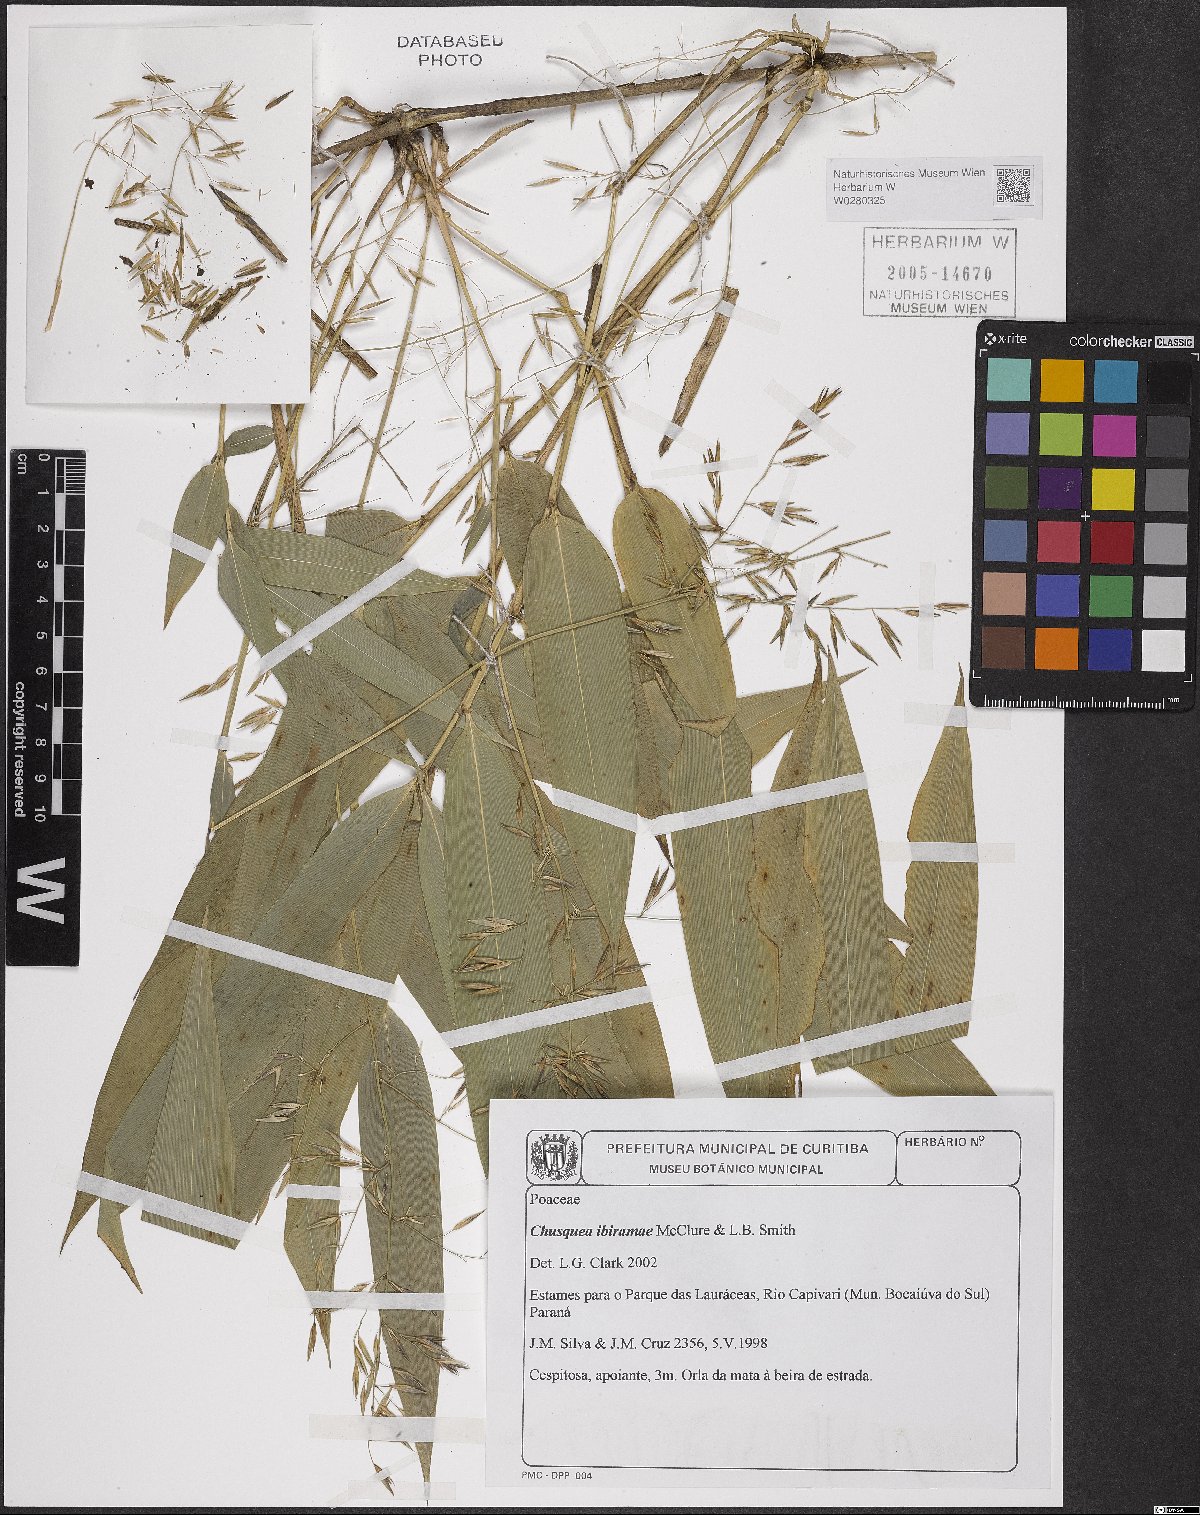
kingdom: Plantae
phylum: Tracheophyta
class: Liliopsida
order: Poales
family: Poaceae
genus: Chusquea
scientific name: Chusquea ibiramae
